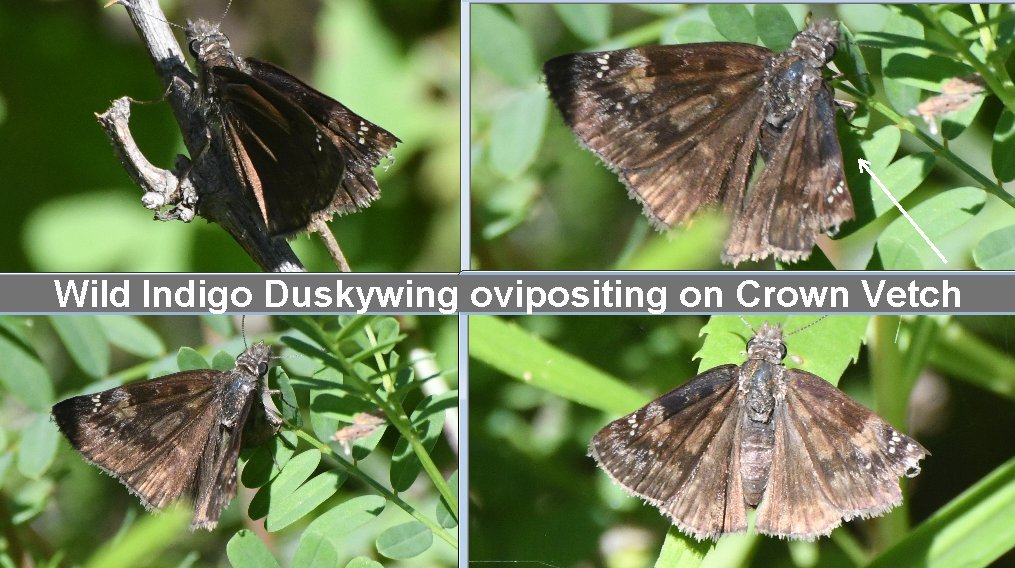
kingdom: Animalia
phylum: Arthropoda
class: Insecta
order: Lepidoptera
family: Hesperiidae
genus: Gesta
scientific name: Gesta
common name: Wild Indigo Duskywing
